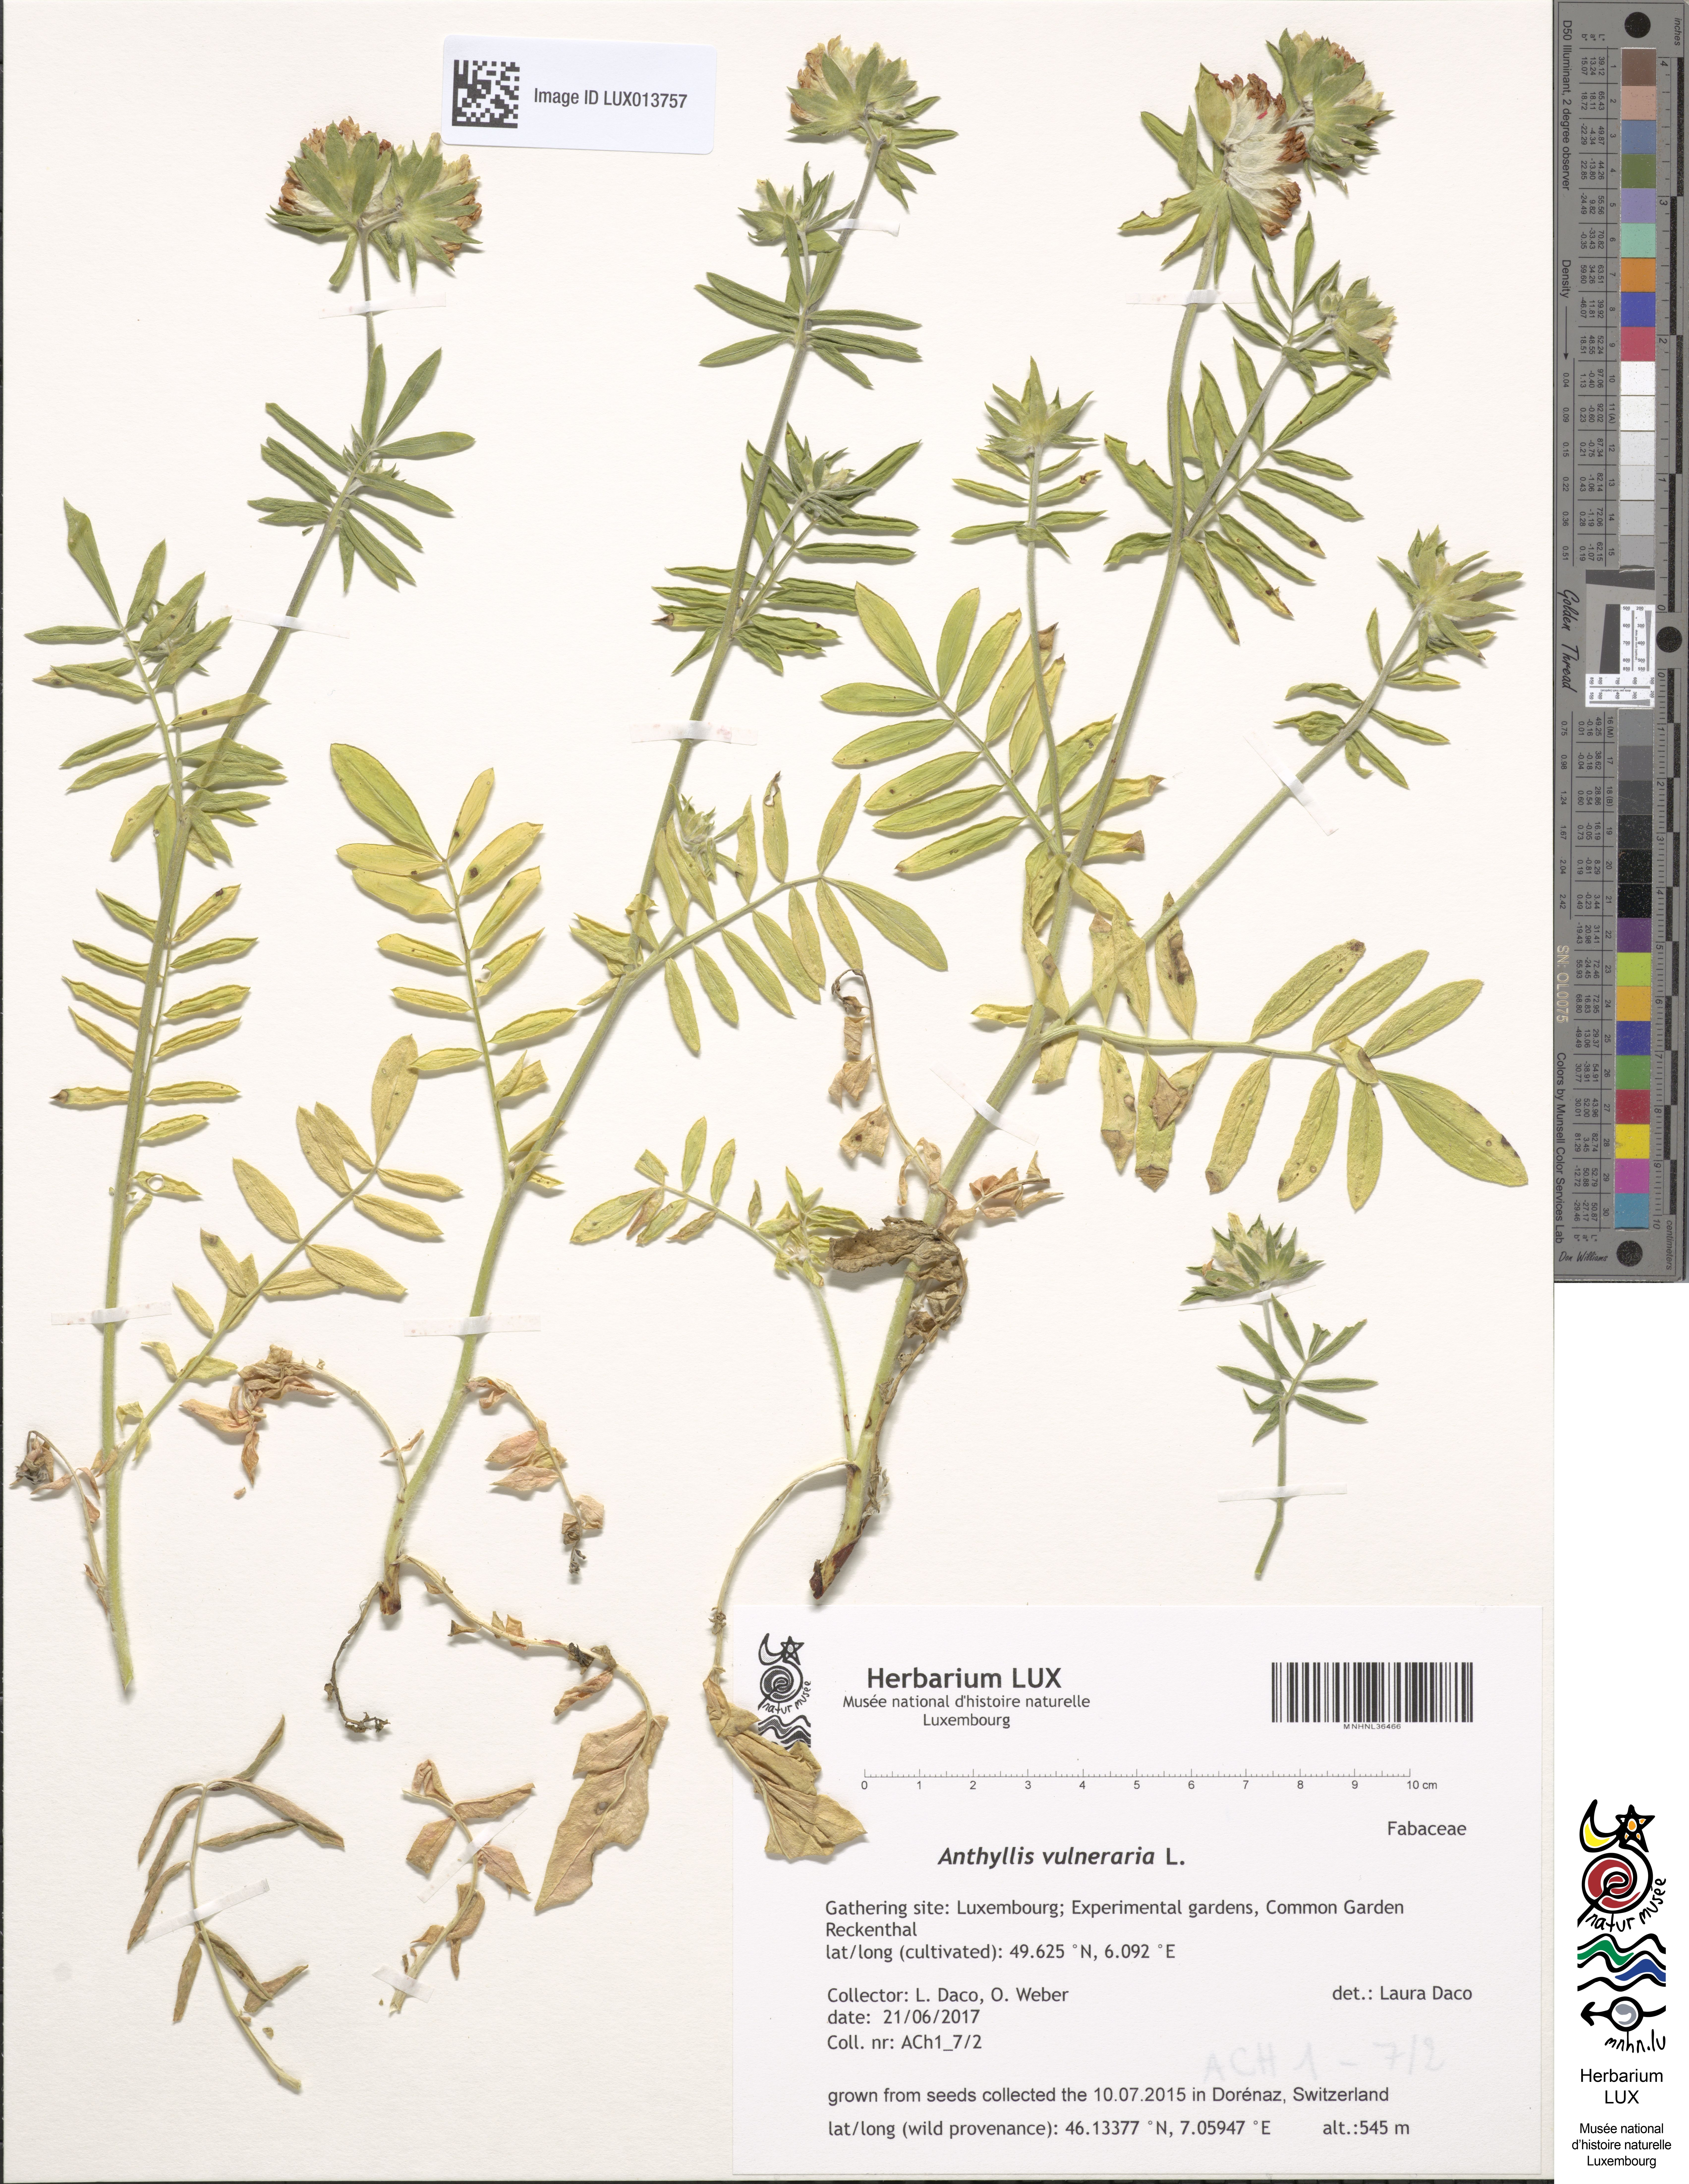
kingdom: Plantae
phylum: Tracheophyta
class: Magnoliopsida
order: Fabales
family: Fabaceae
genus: Anthyllis
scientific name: Anthyllis vulneraria
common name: Kidney vetch
